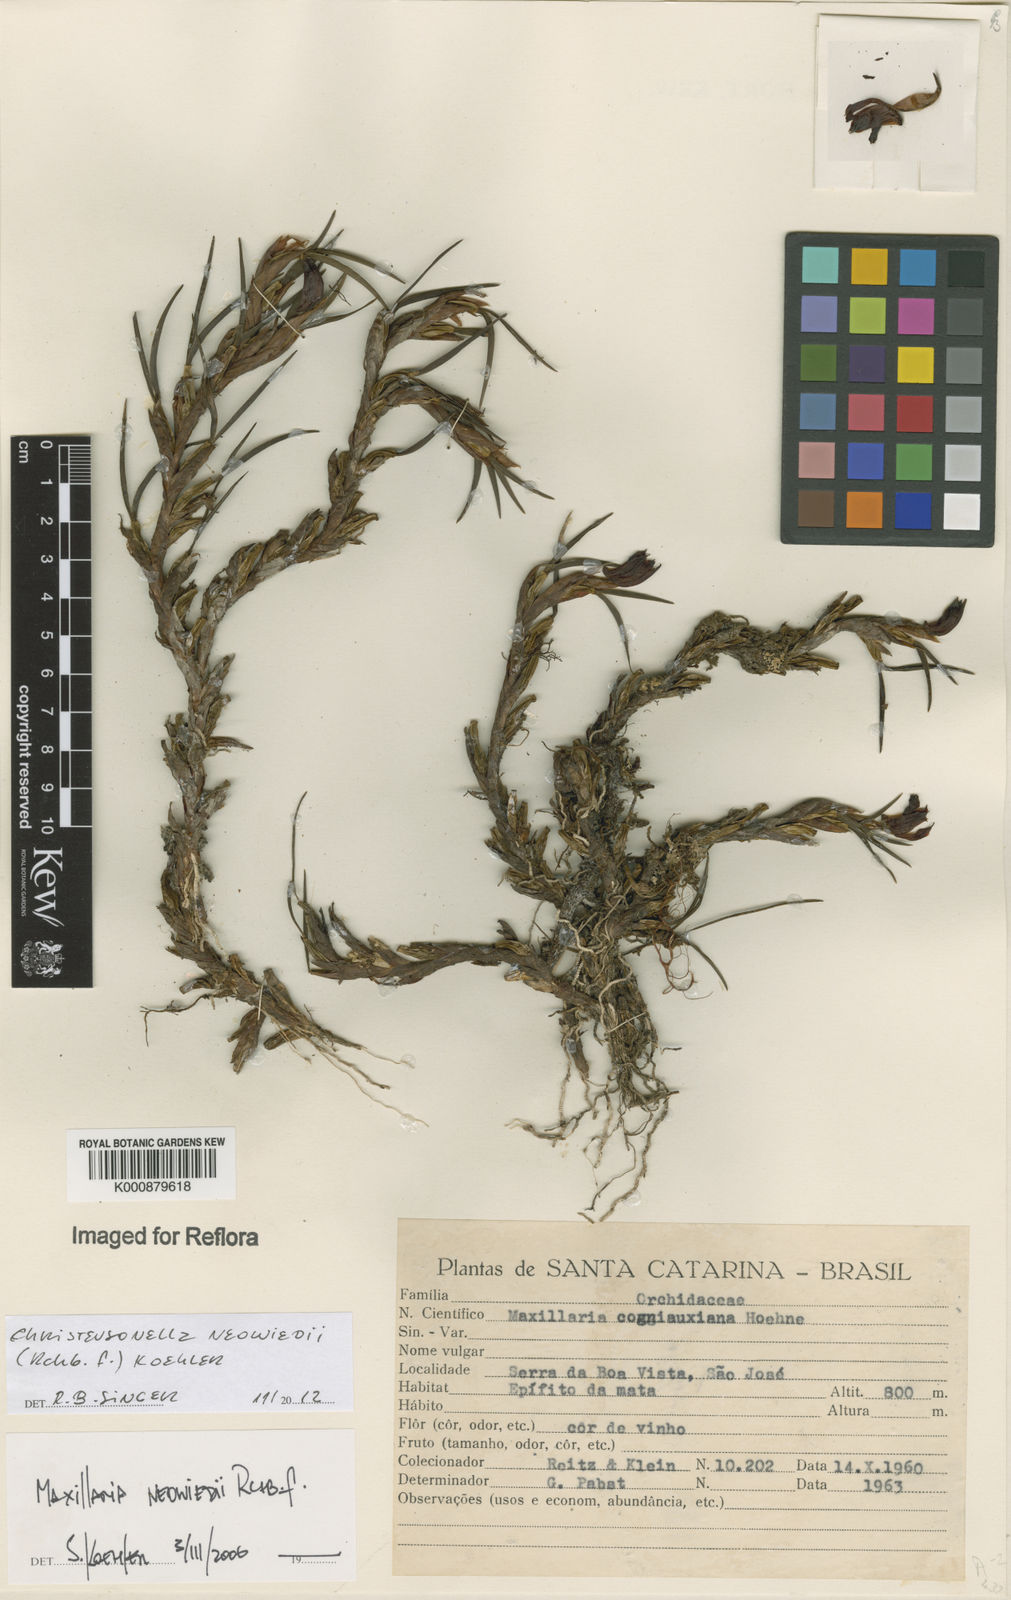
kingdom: Plantae
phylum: Tracheophyta
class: Liliopsida
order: Asparagales
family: Orchidaceae
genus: Maxillaria
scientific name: Maxillaria
